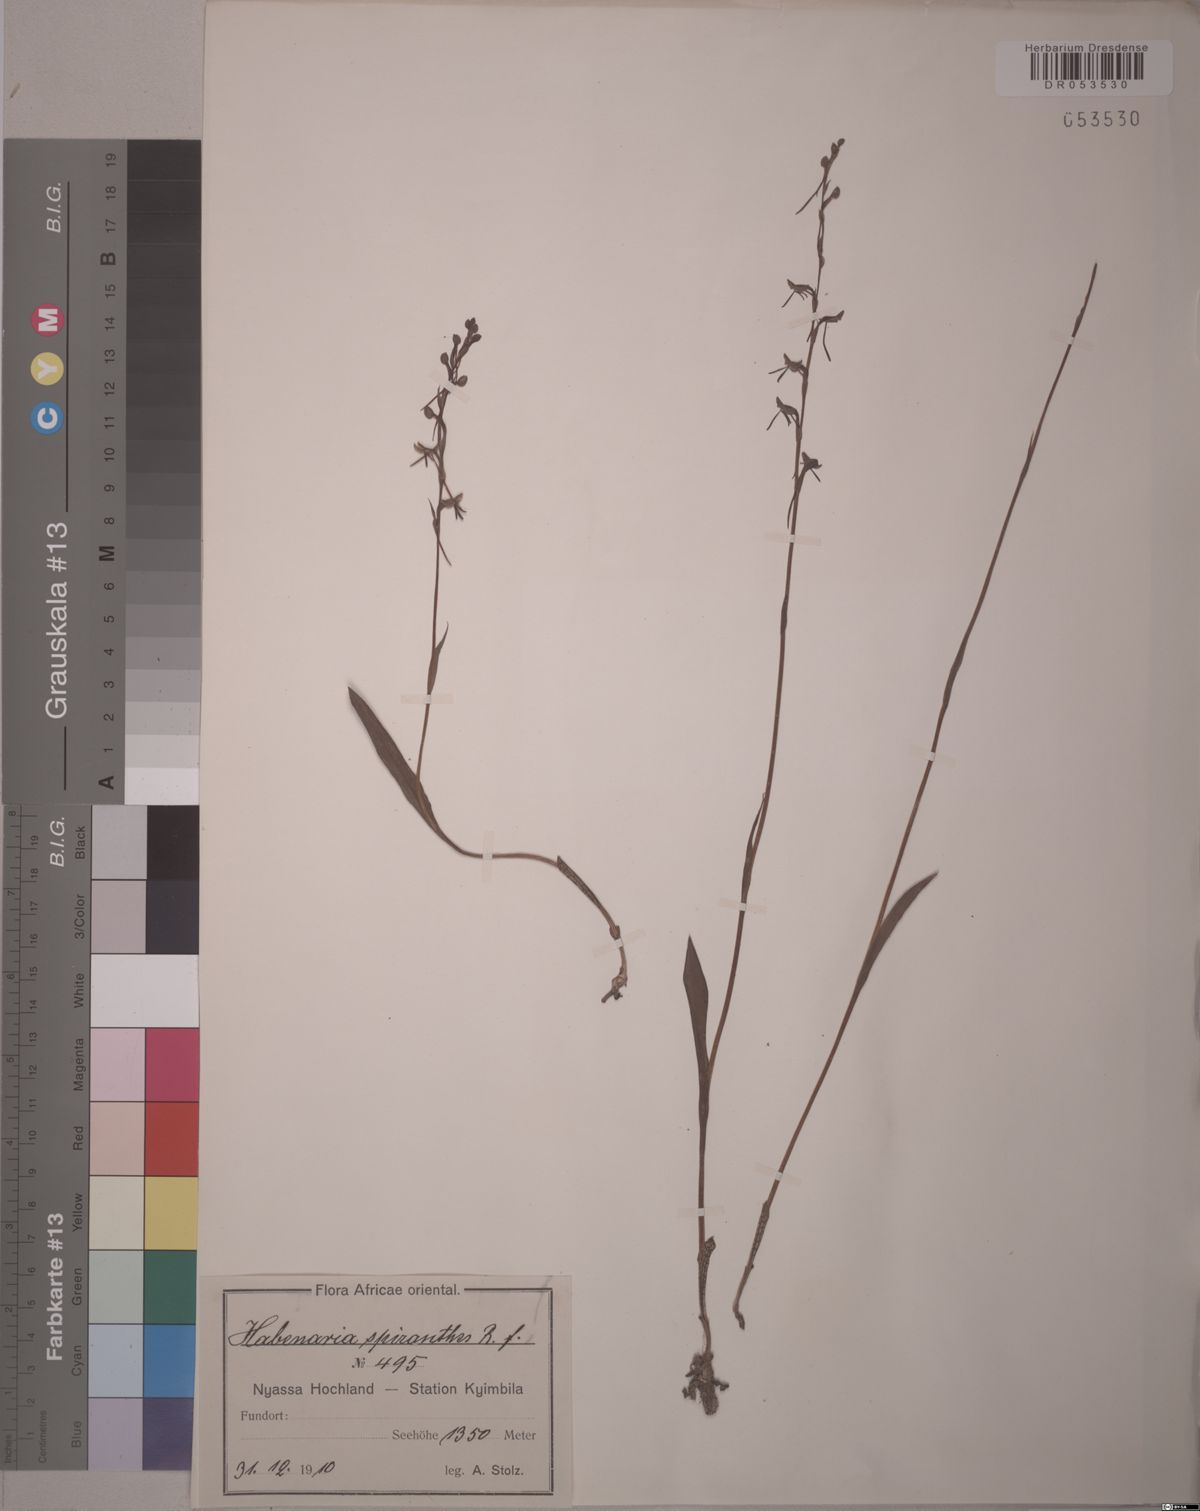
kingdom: Plantae
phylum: Tracheophyta
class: Liliopsida
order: Asparagales
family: Orchidaceae
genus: Habenaria
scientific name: Habenaria
